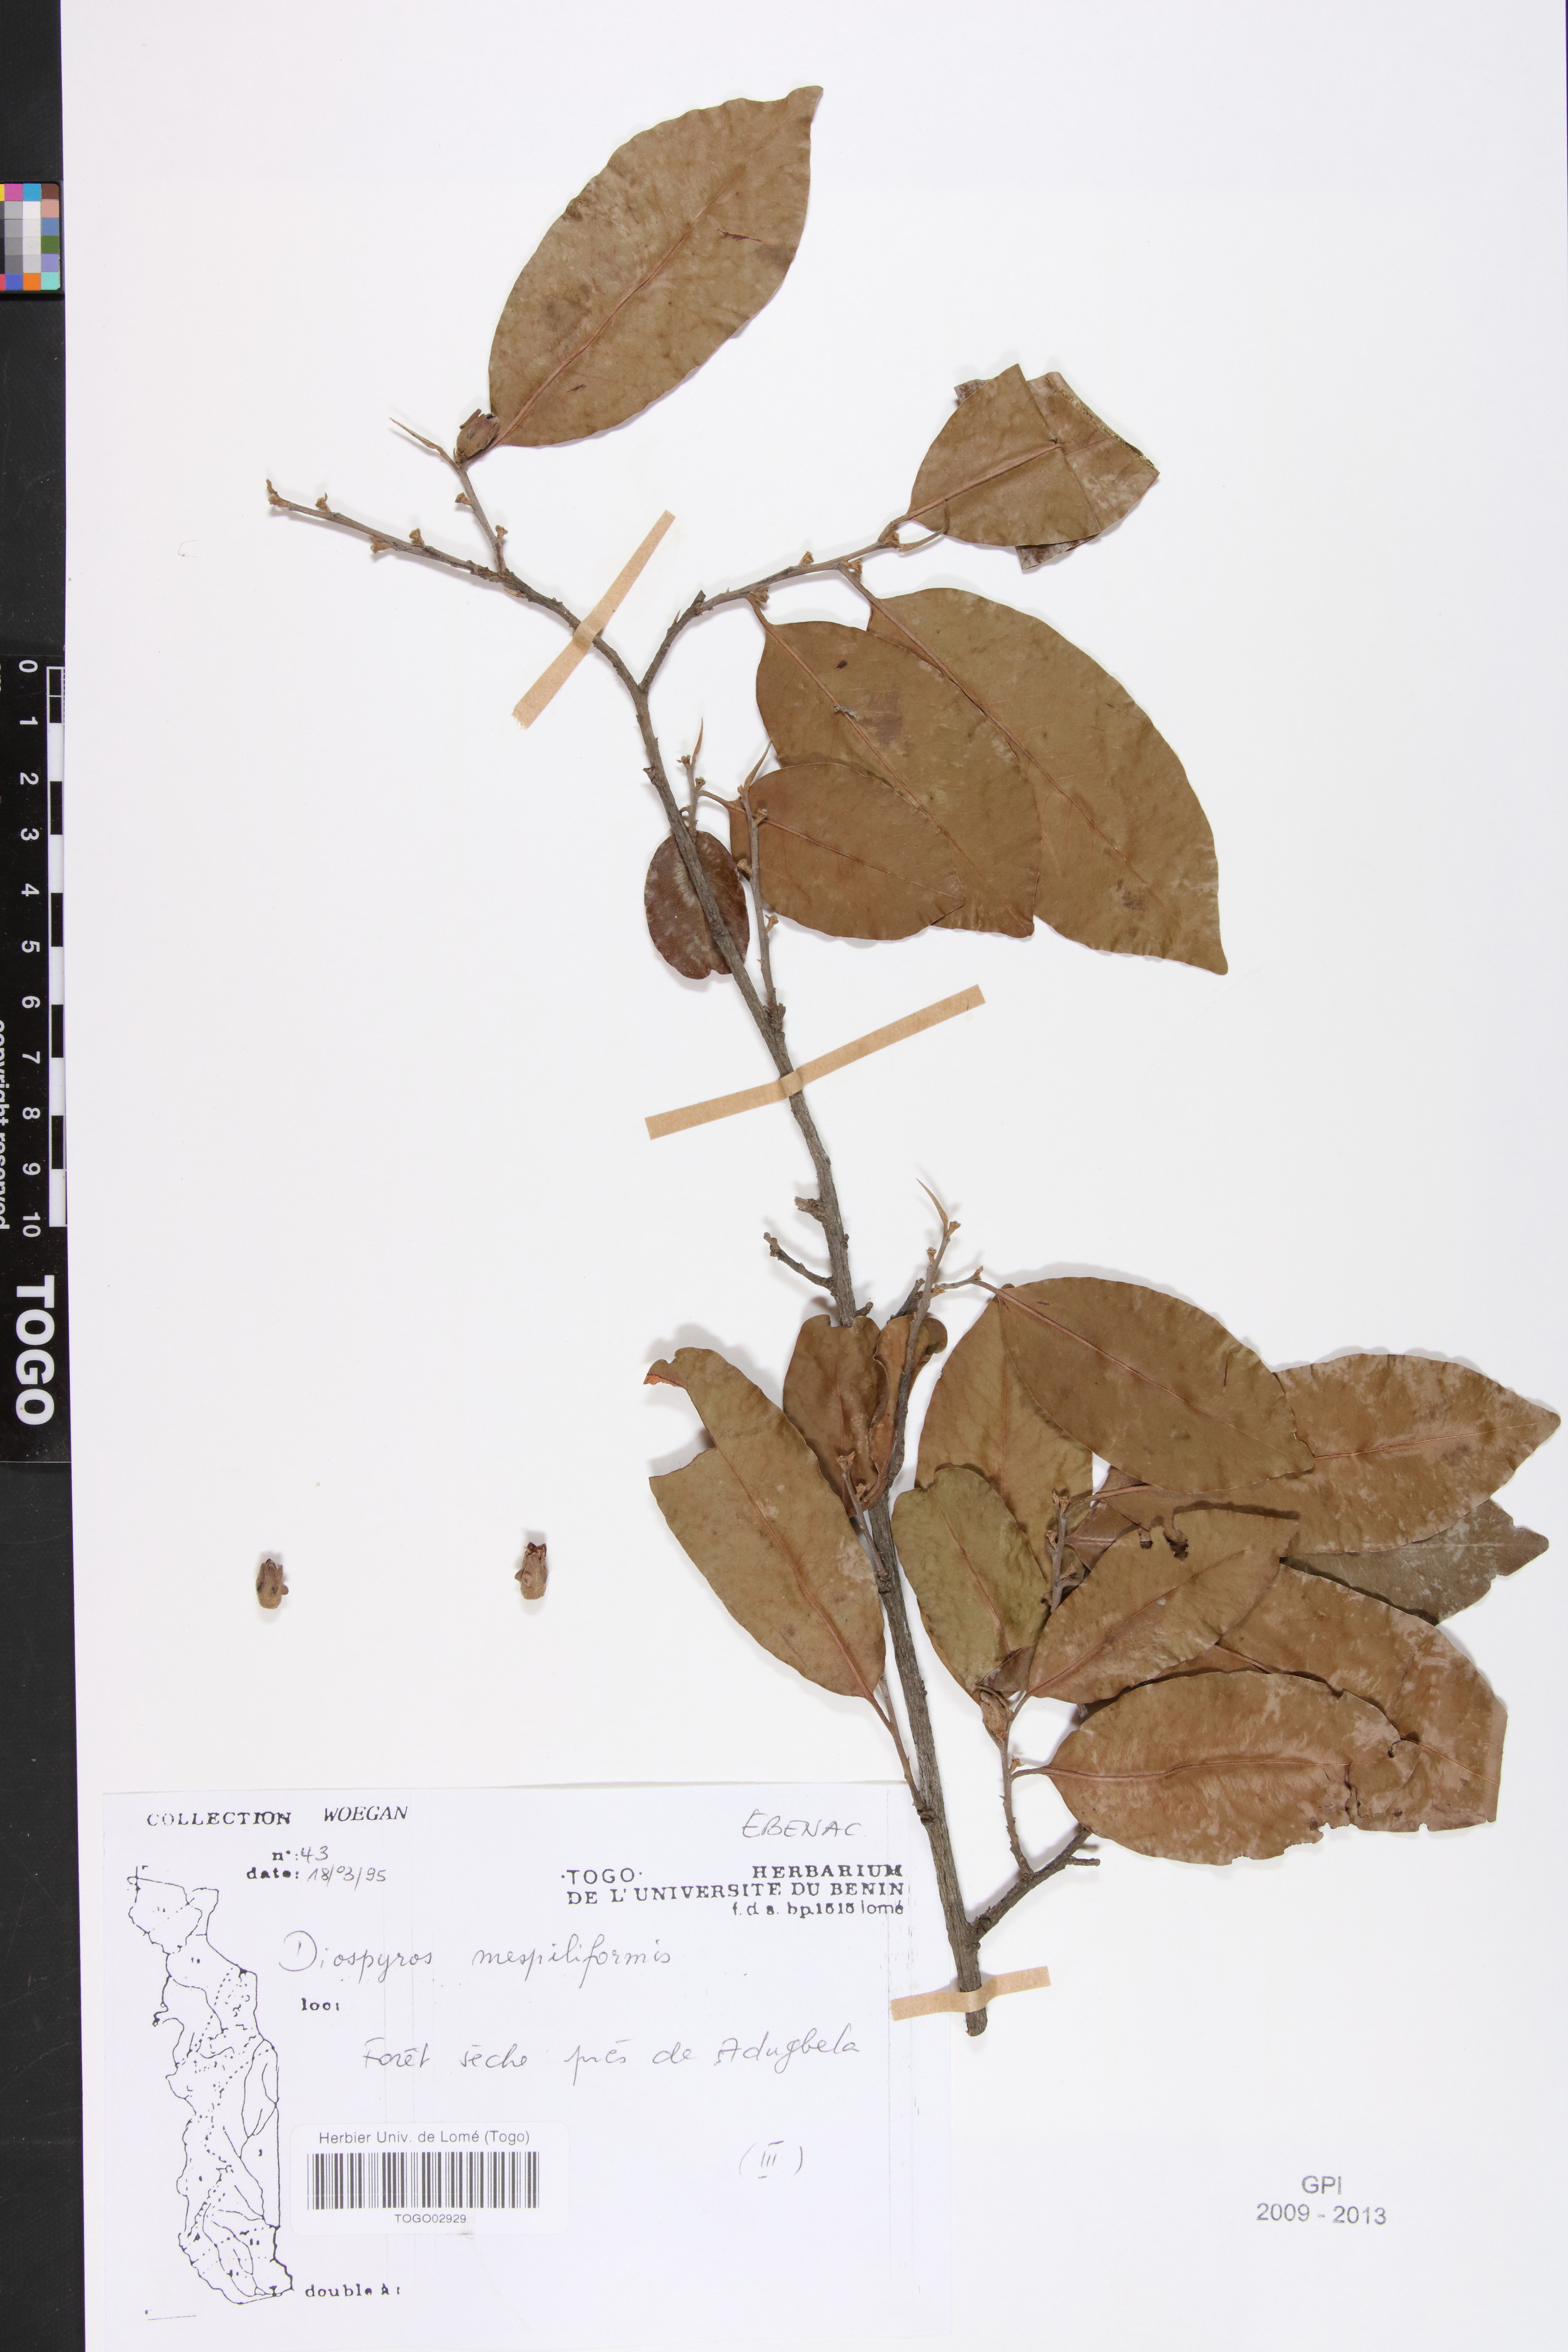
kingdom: Plantae
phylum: Tracheophyta
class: Magnoliopsida
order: Ericales
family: Ebenaceae
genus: Diospyros
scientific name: Diospyros mespiliformis
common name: Ebony diospyros
